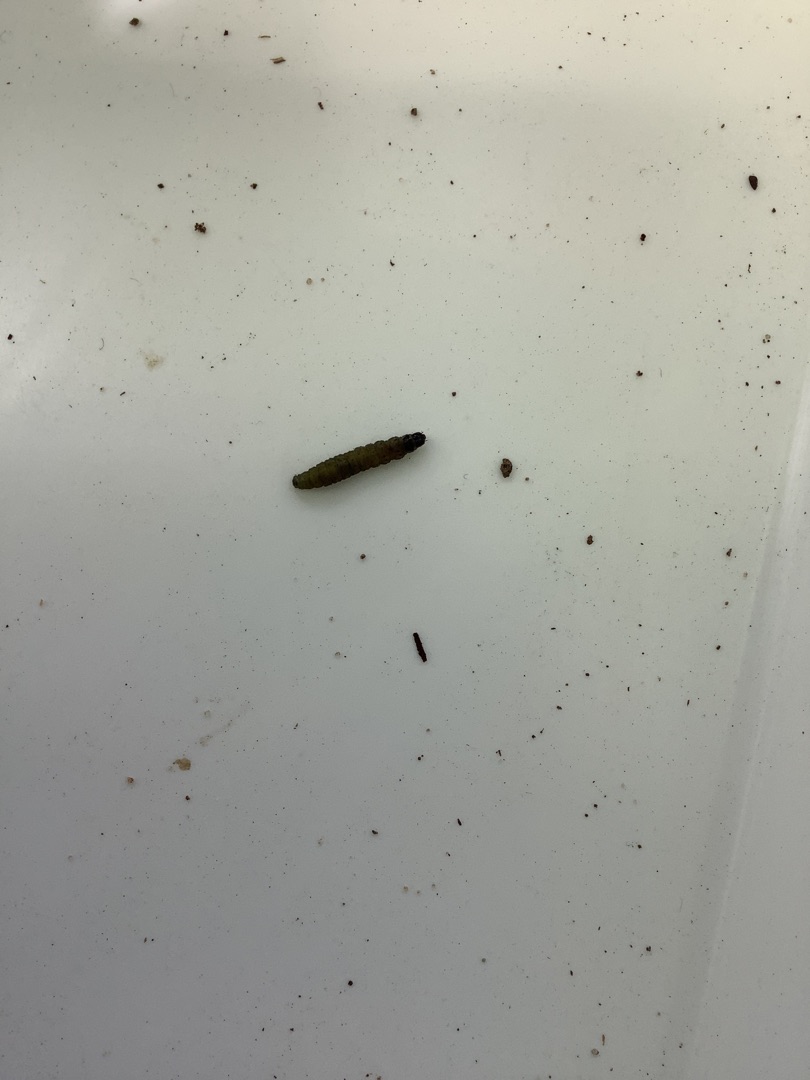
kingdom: Animalia
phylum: Arthropoda
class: Insecta
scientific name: Insecta
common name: Insekter
